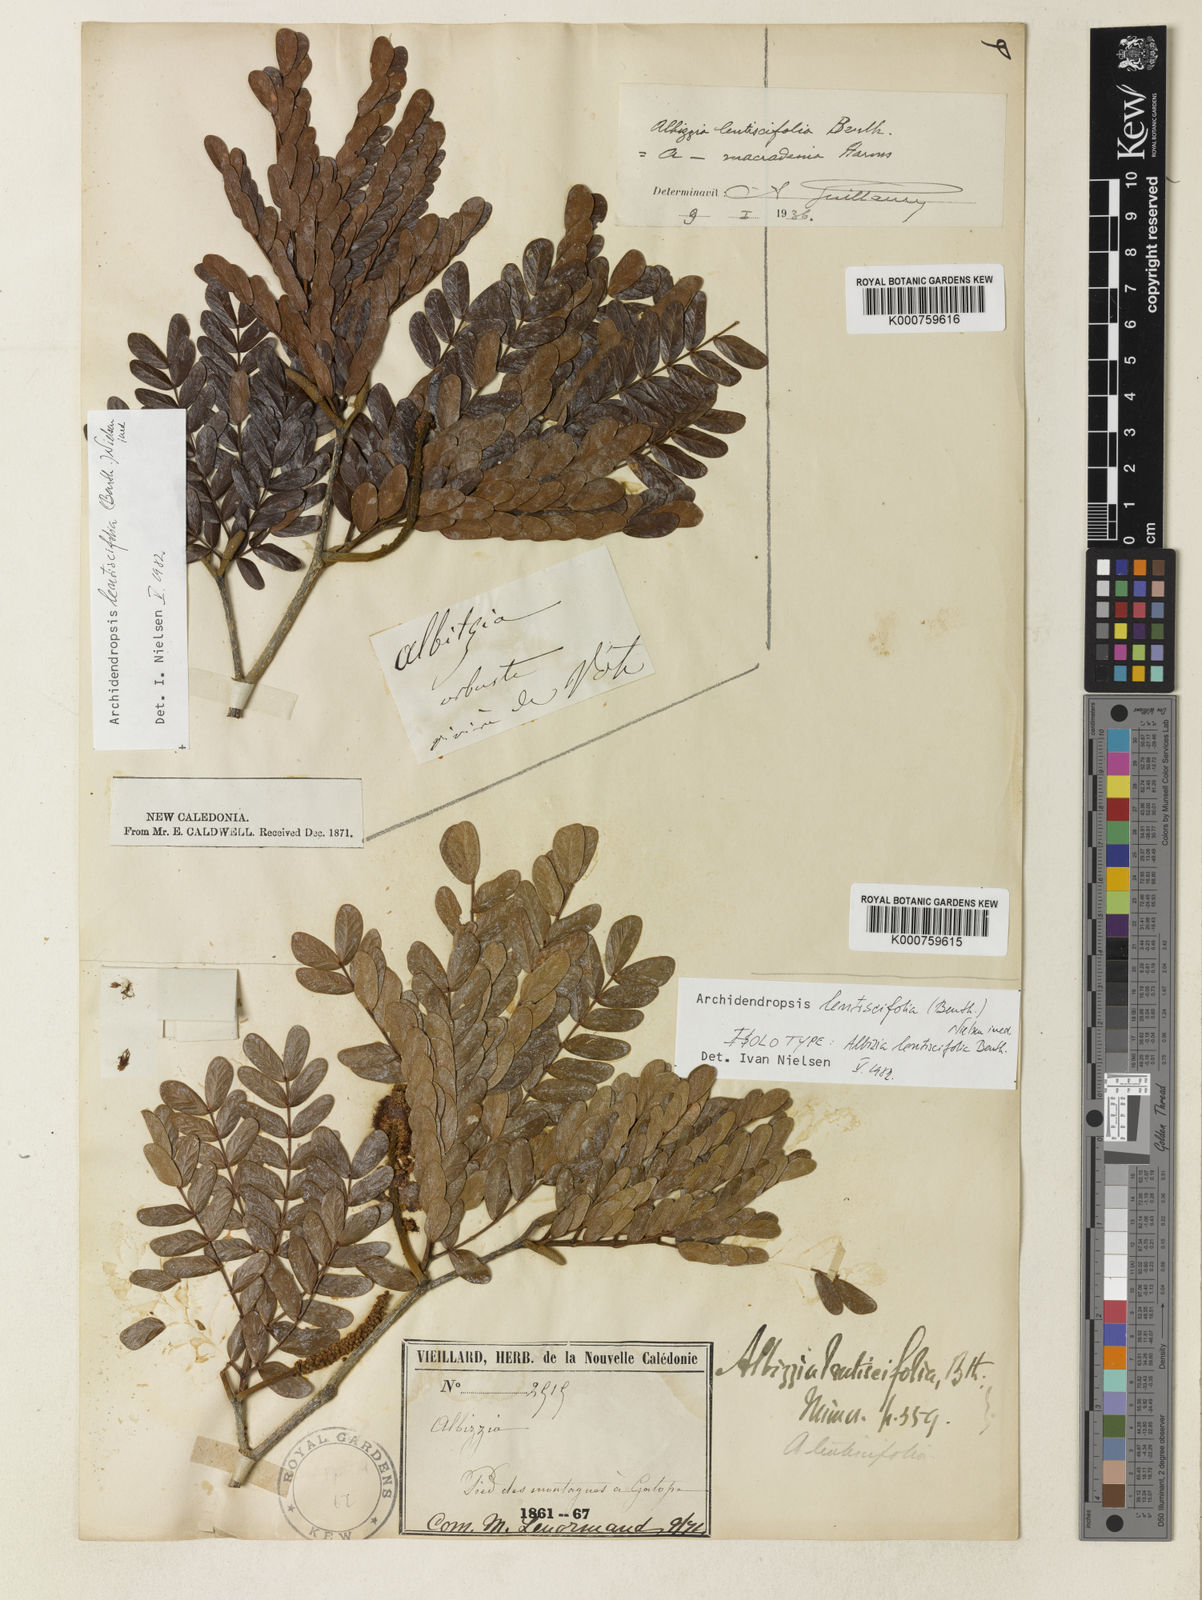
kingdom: Plantae
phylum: Tracheophyta
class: Magnoliopsida
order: Fabales
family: Fabaceae
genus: Archidendropsis
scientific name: Archidendropsis lentiscifolia
